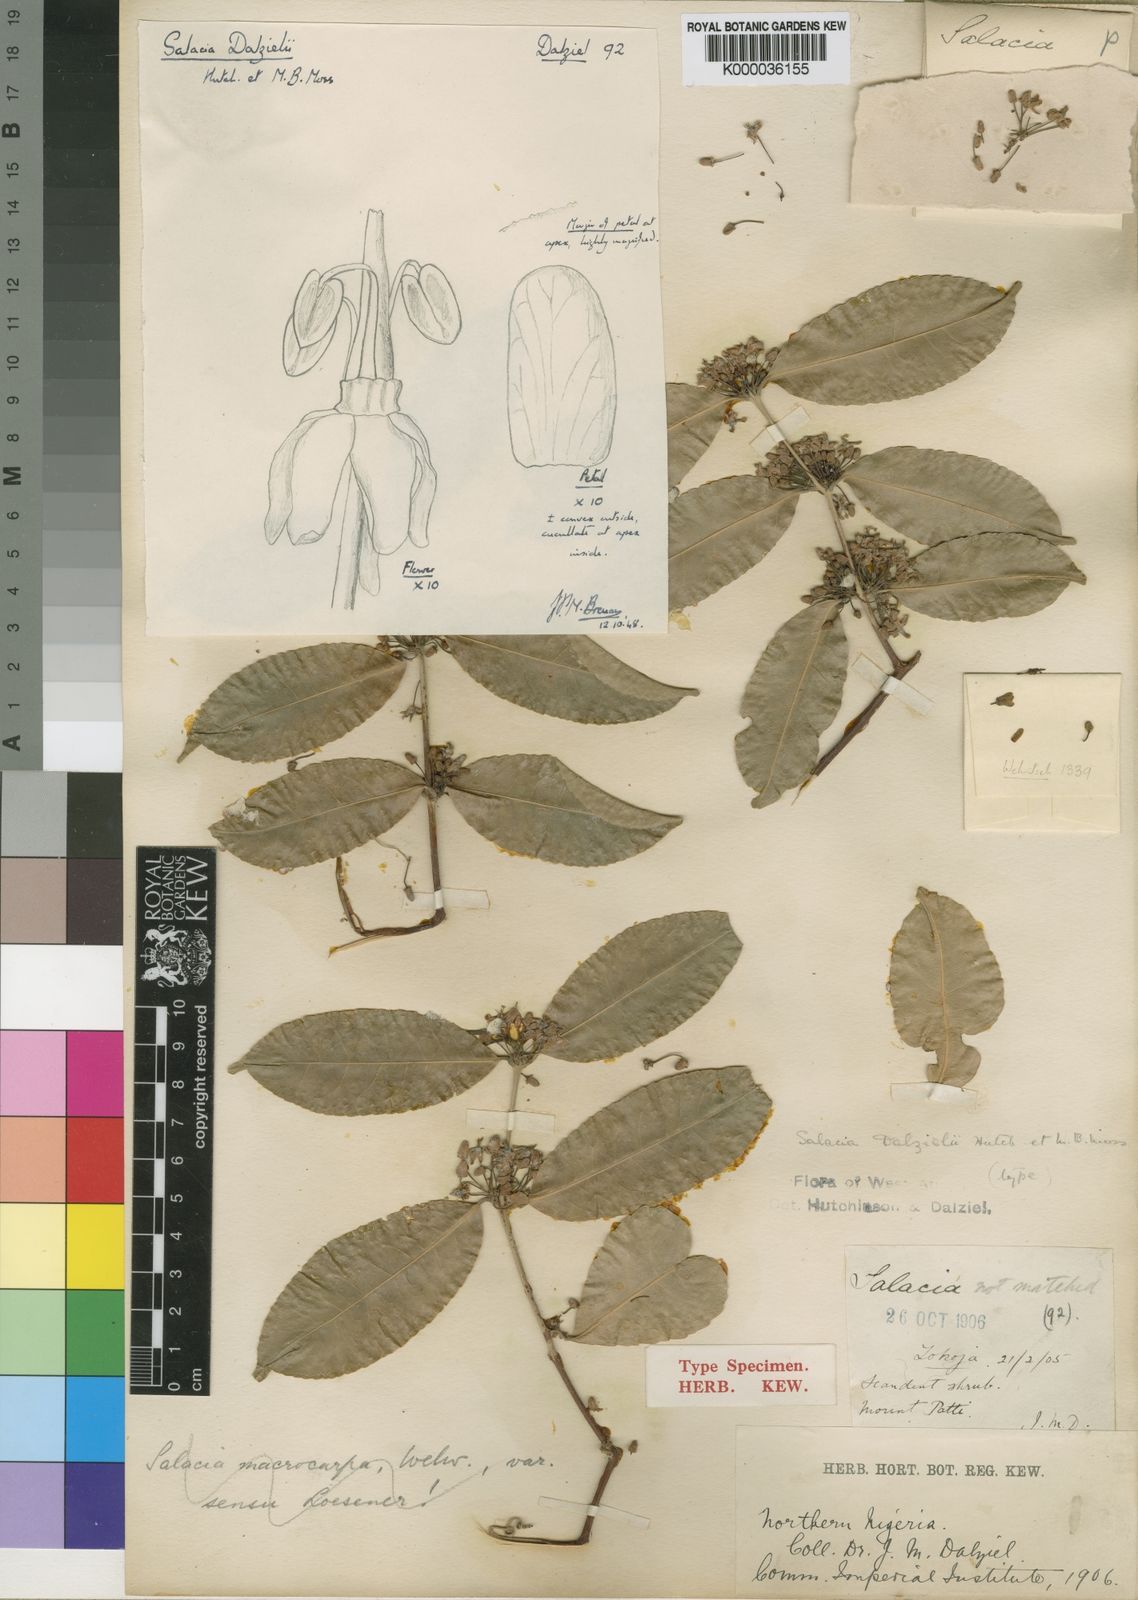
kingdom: Plantae
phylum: Tracheophyta
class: Magnoliopsida
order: Celastrales
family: Celastraceae
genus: Salacia
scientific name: Salacia chlorantha
